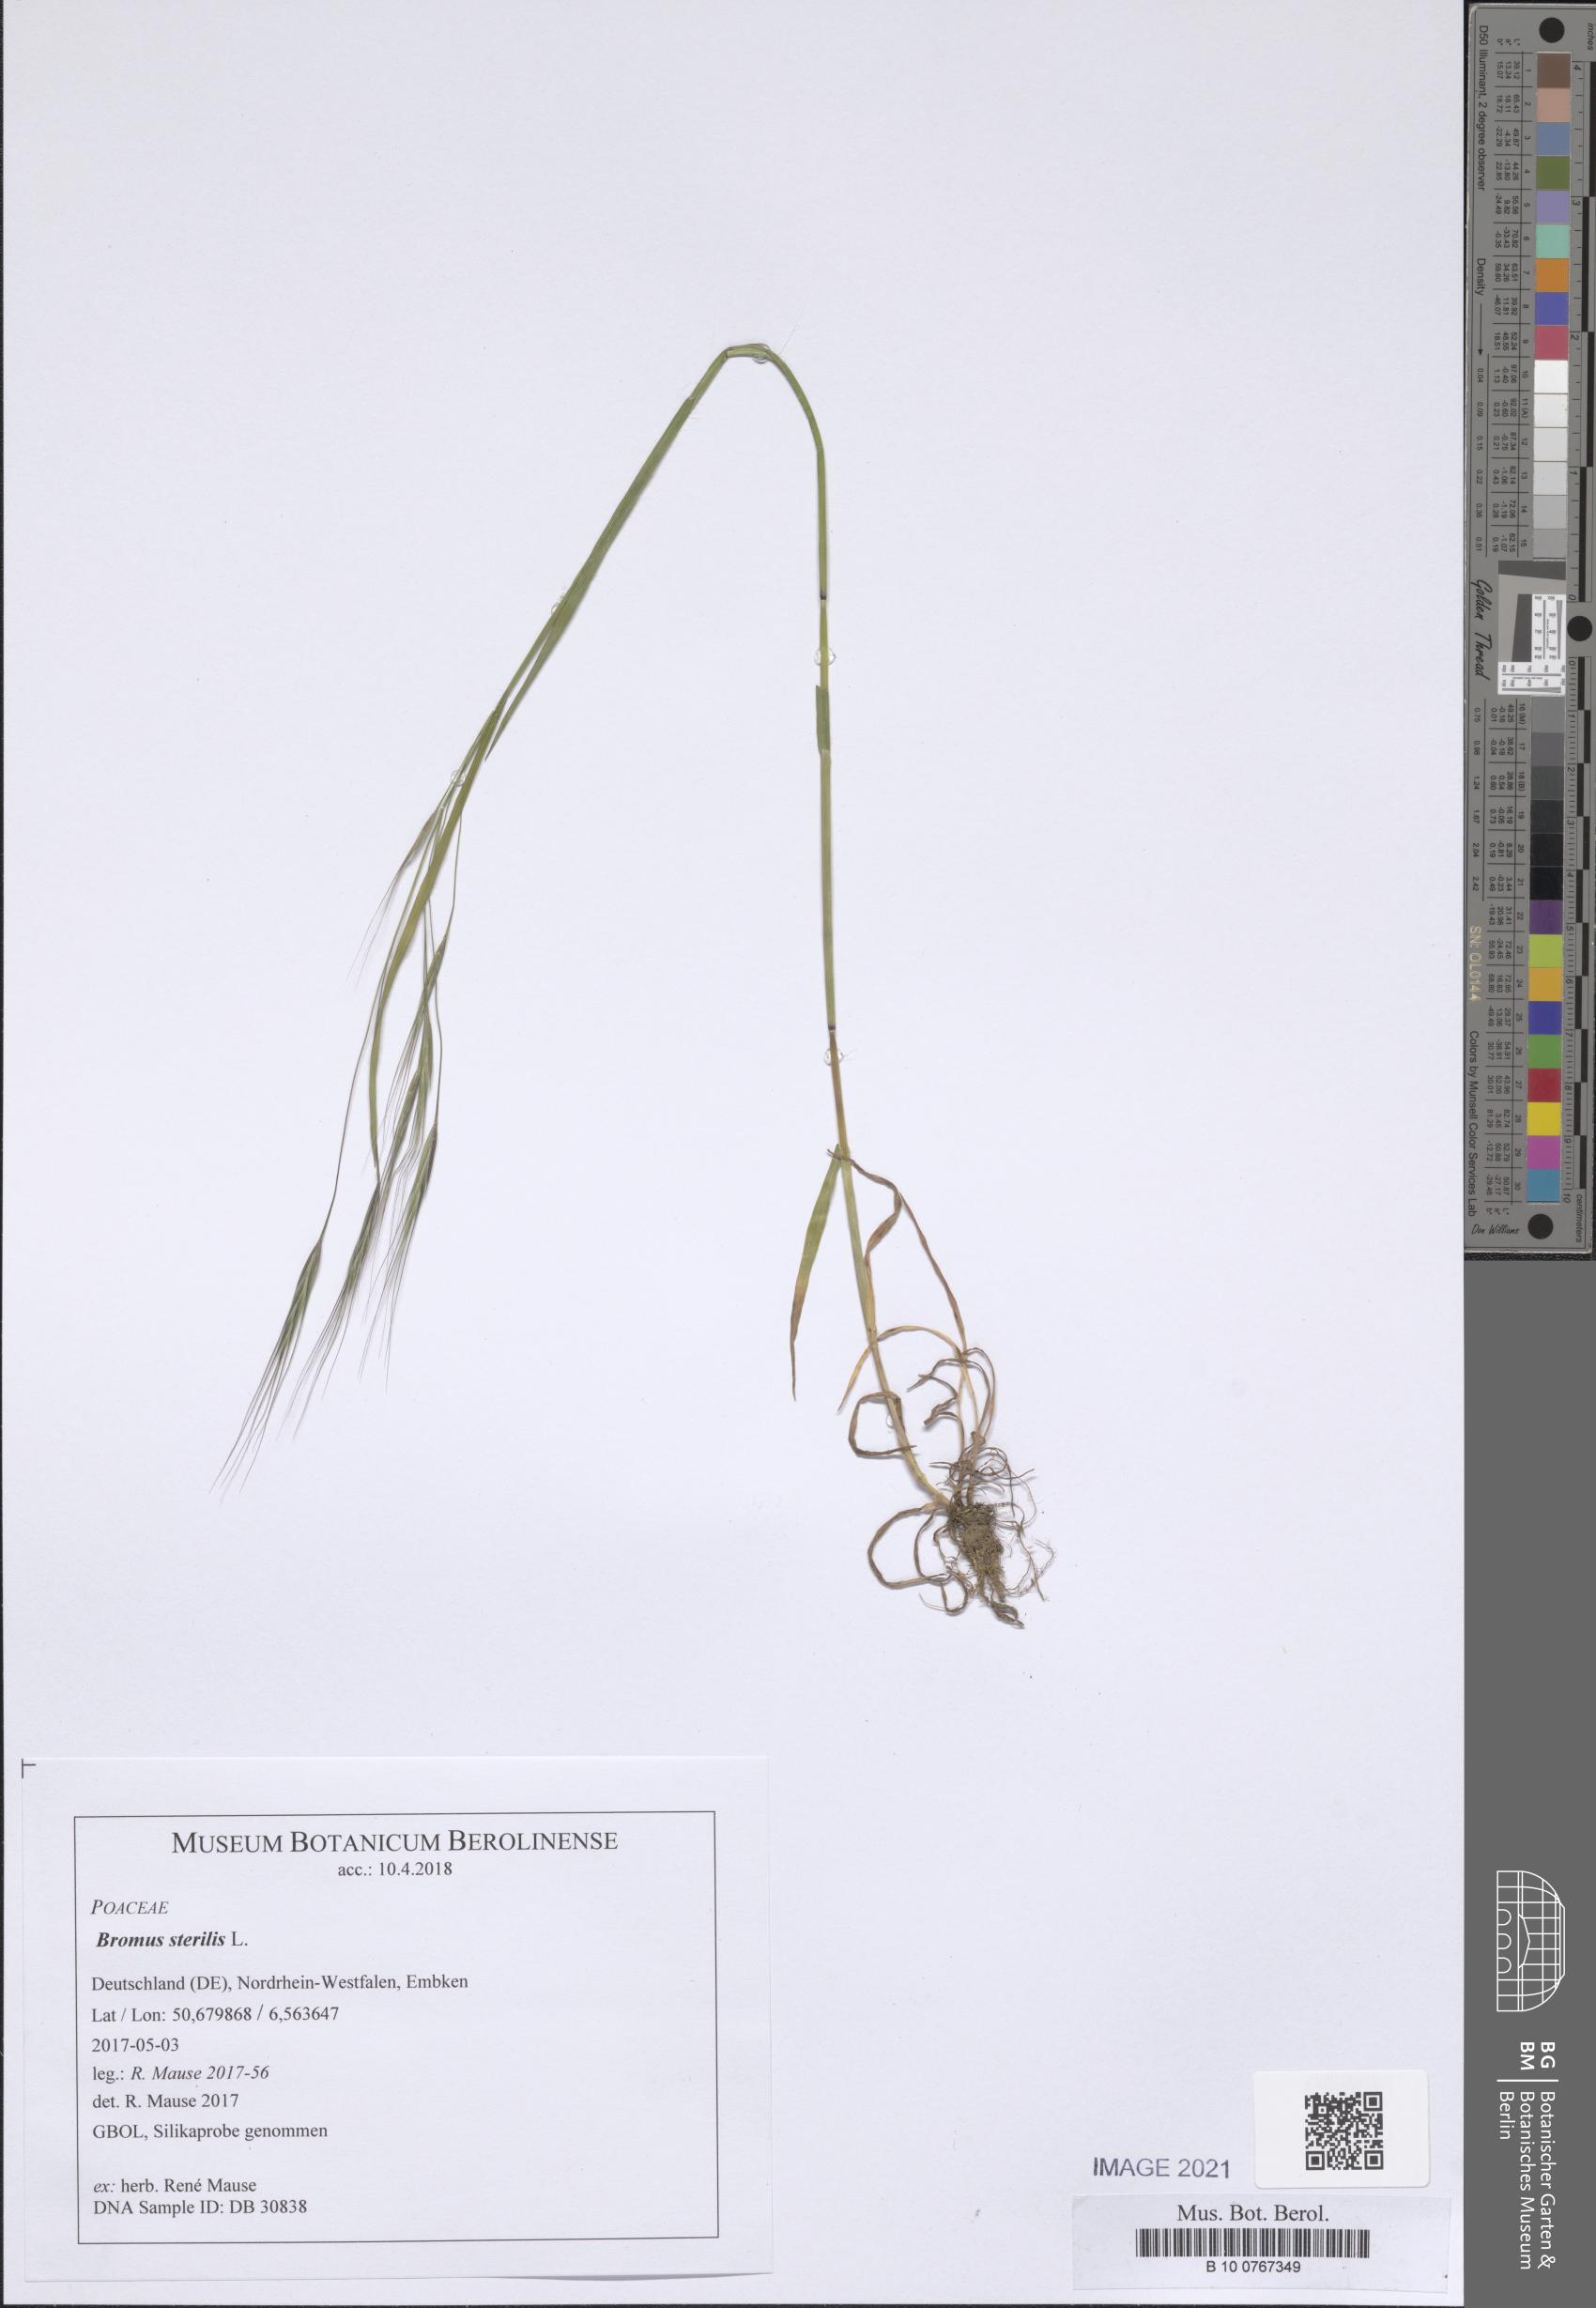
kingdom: Plantae
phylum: Tracheophyta
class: Liliopsida
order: Poales
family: Poaceae
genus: Bromus
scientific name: Bromus sterilis
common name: Poverty brome
